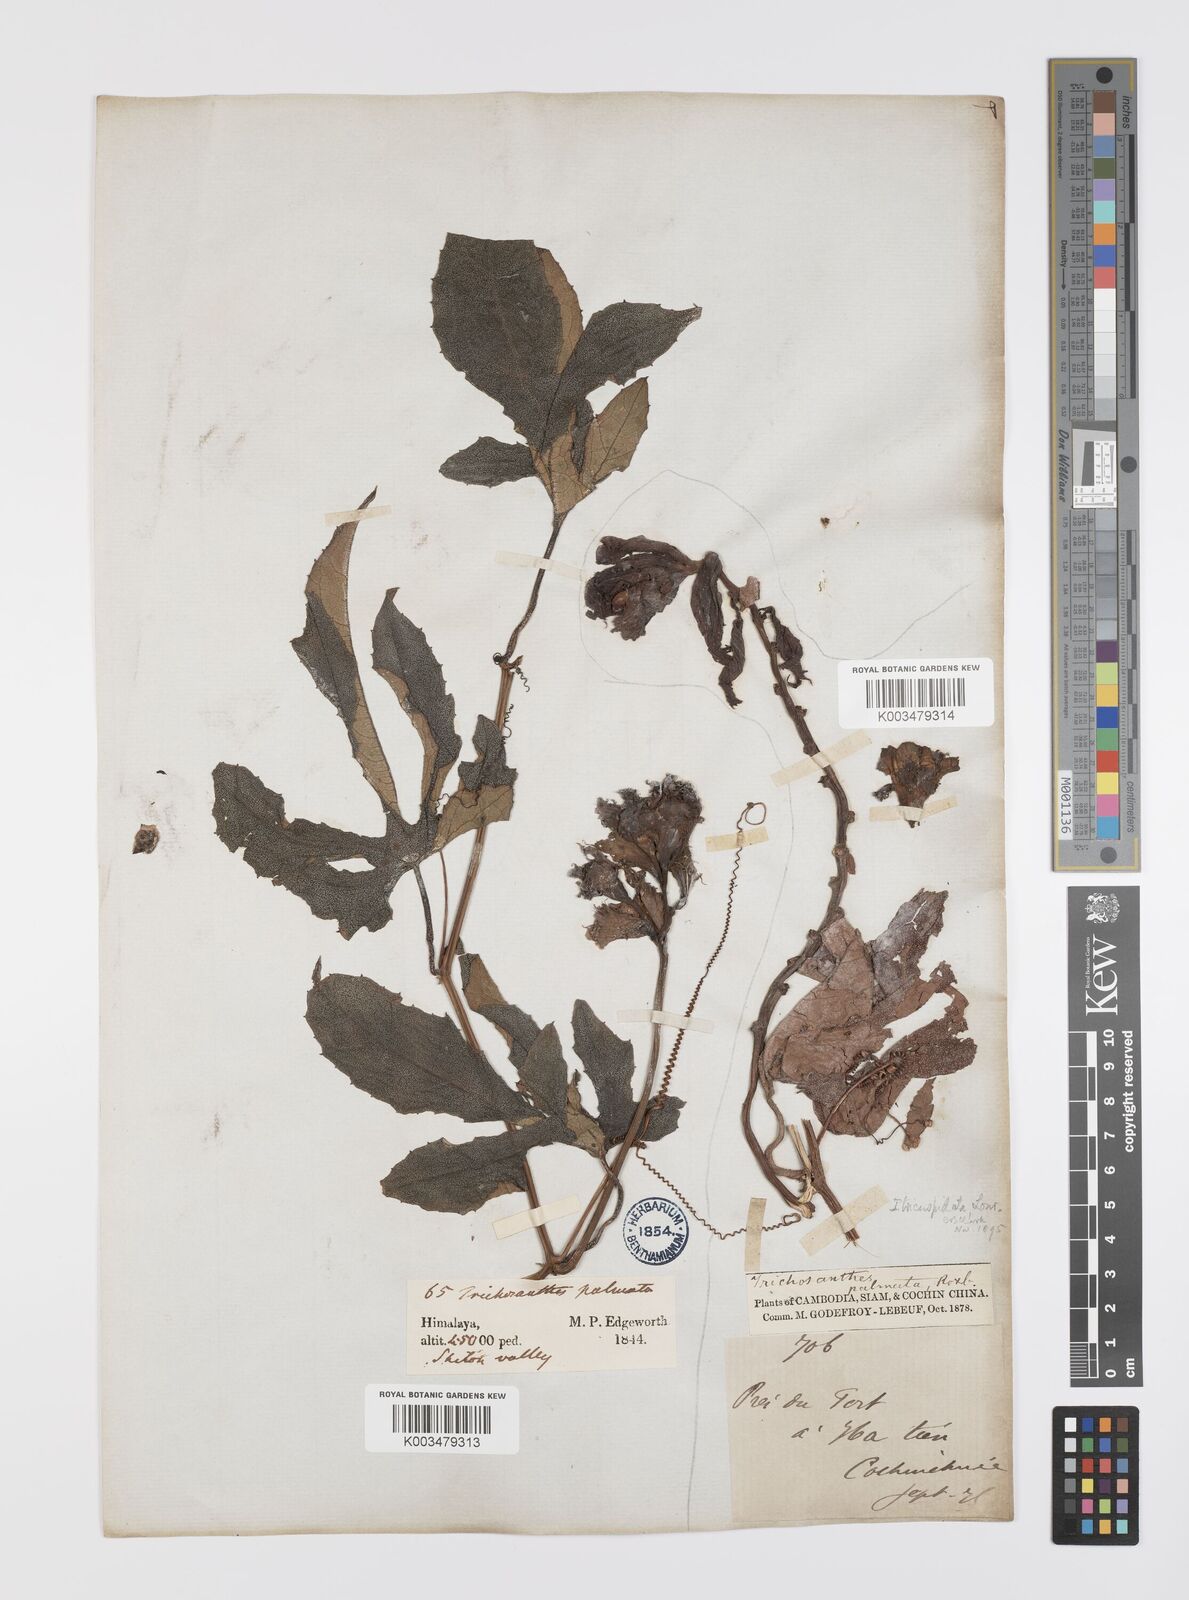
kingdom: Plantae
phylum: Tracheophyta
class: Magnoliopsida
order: Cucurbitales
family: Cucurbitaceae
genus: Trichosanthes
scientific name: Trichosanthes rubriflos
